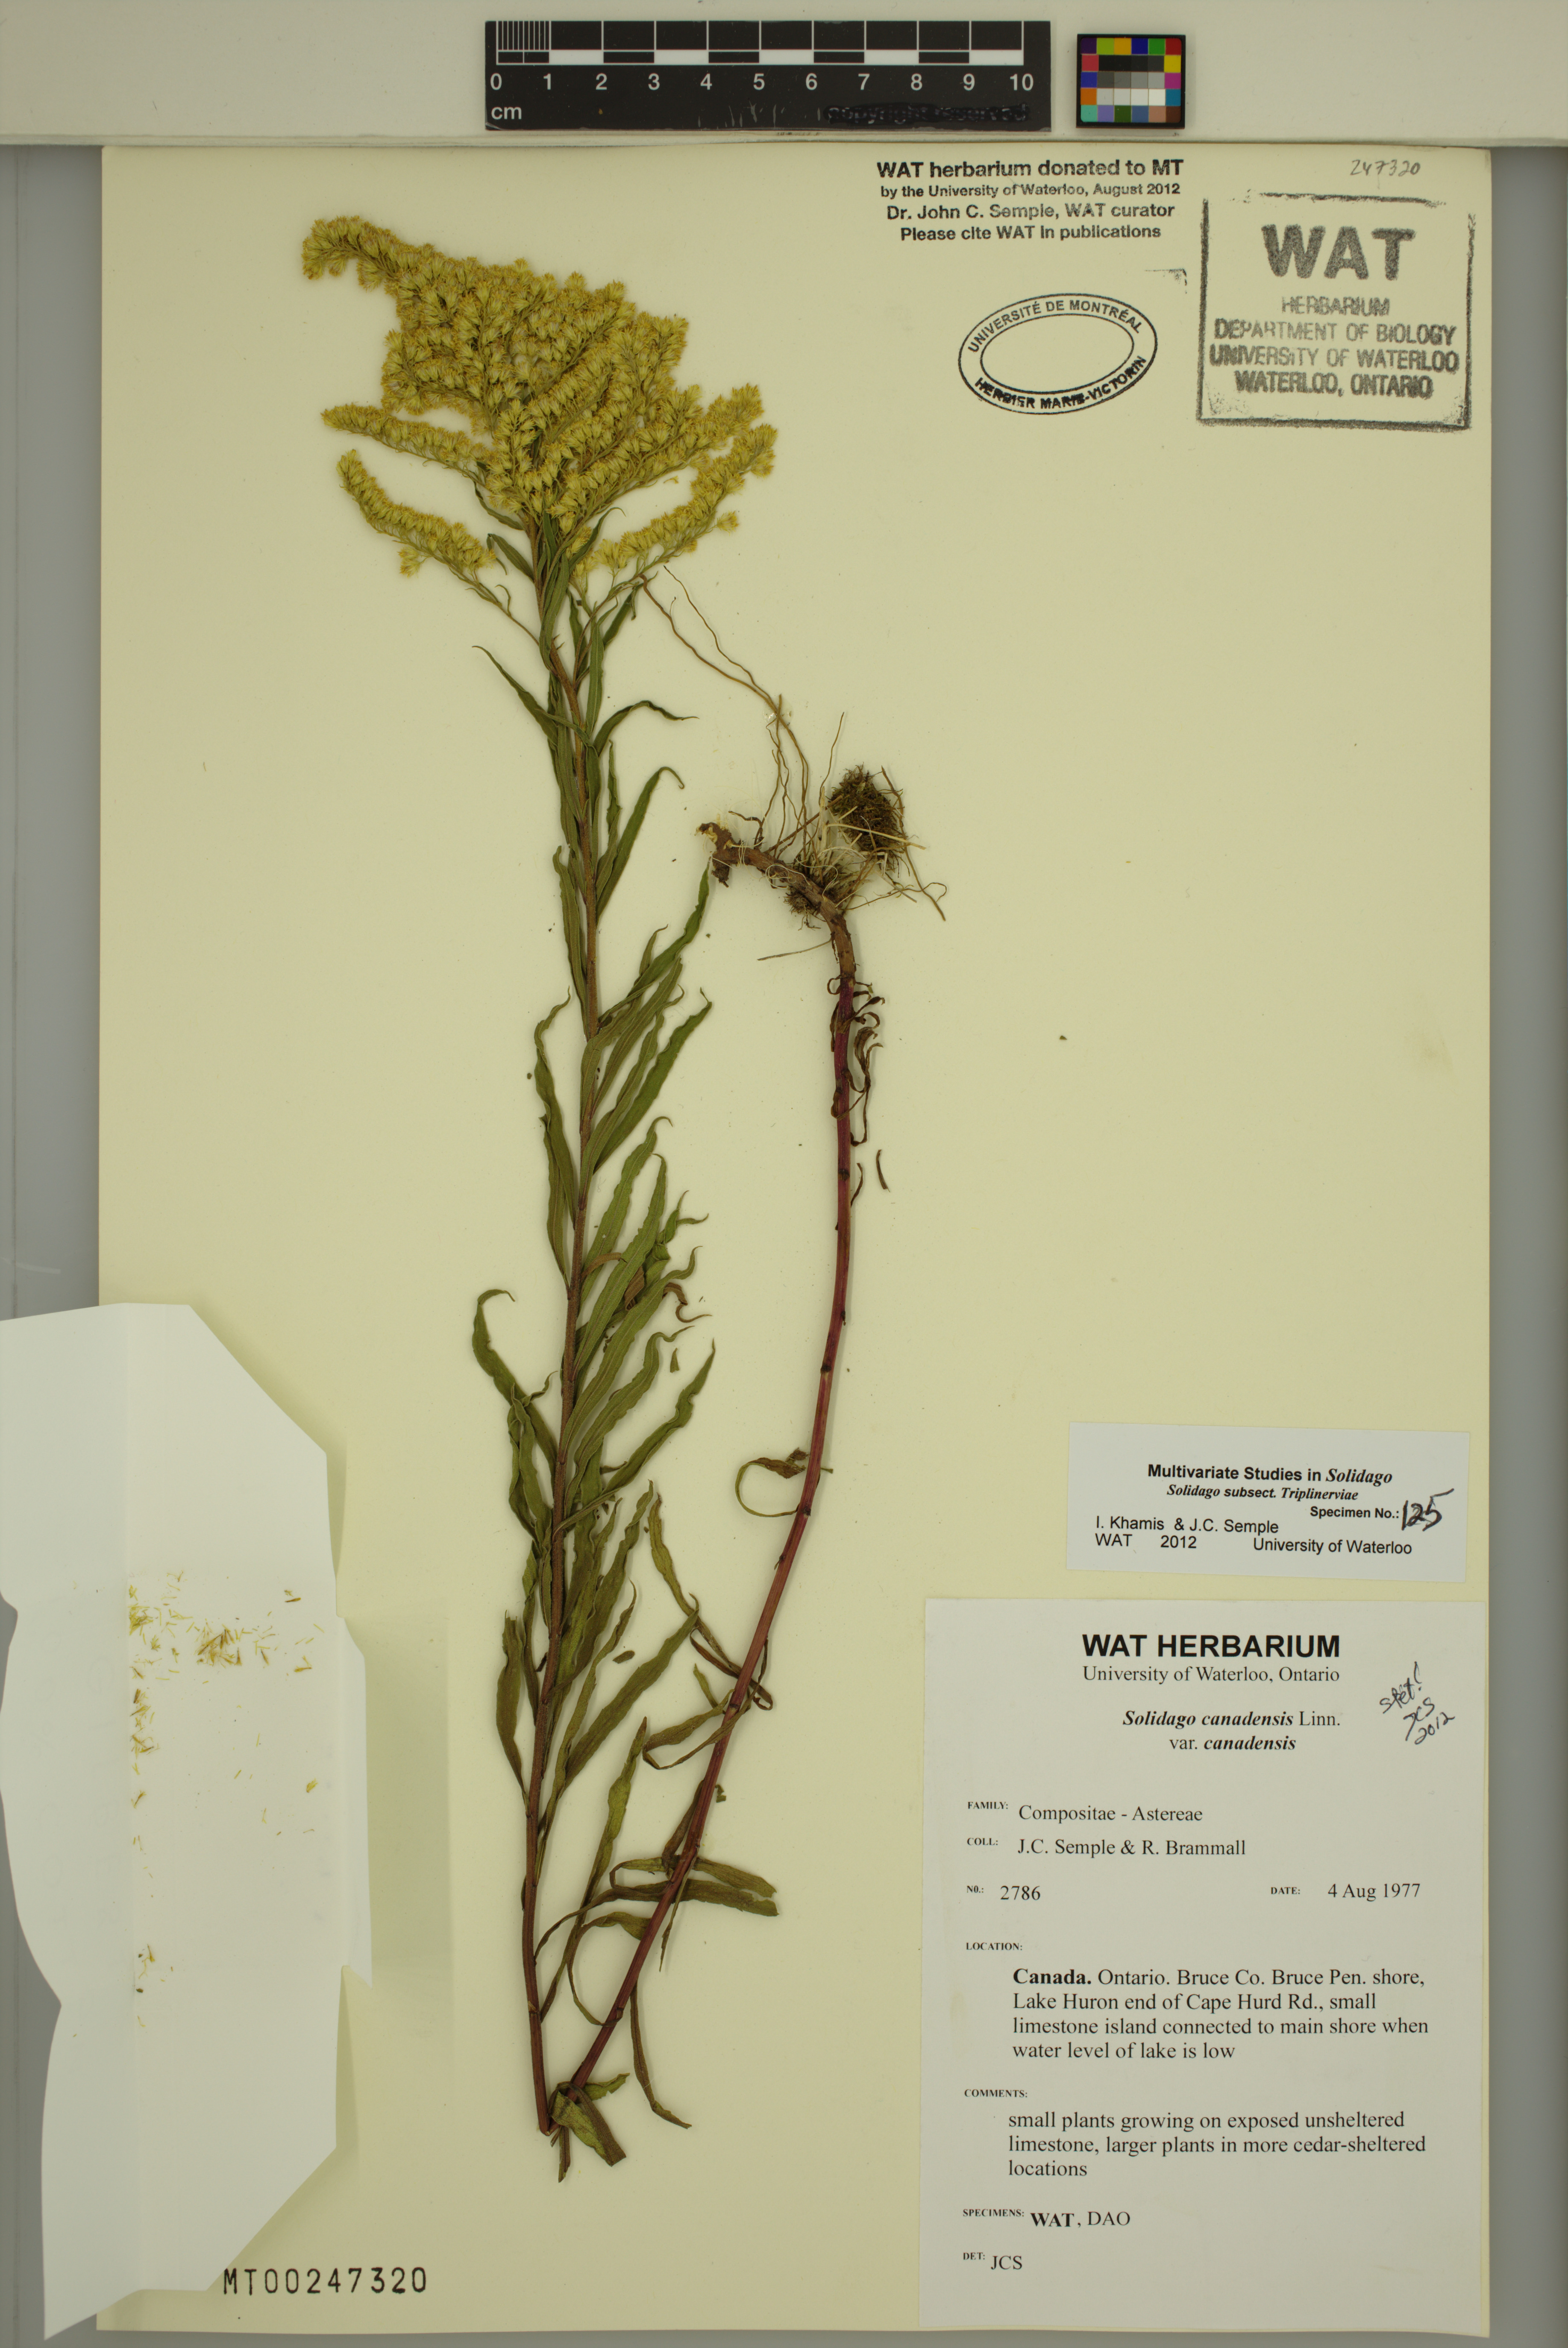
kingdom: Plantae
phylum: Tracheophyta
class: Magnoliopsida
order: Asterales
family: Asteraceae
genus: Solidago
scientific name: Solidago canadensis
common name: Canada goldenrod
